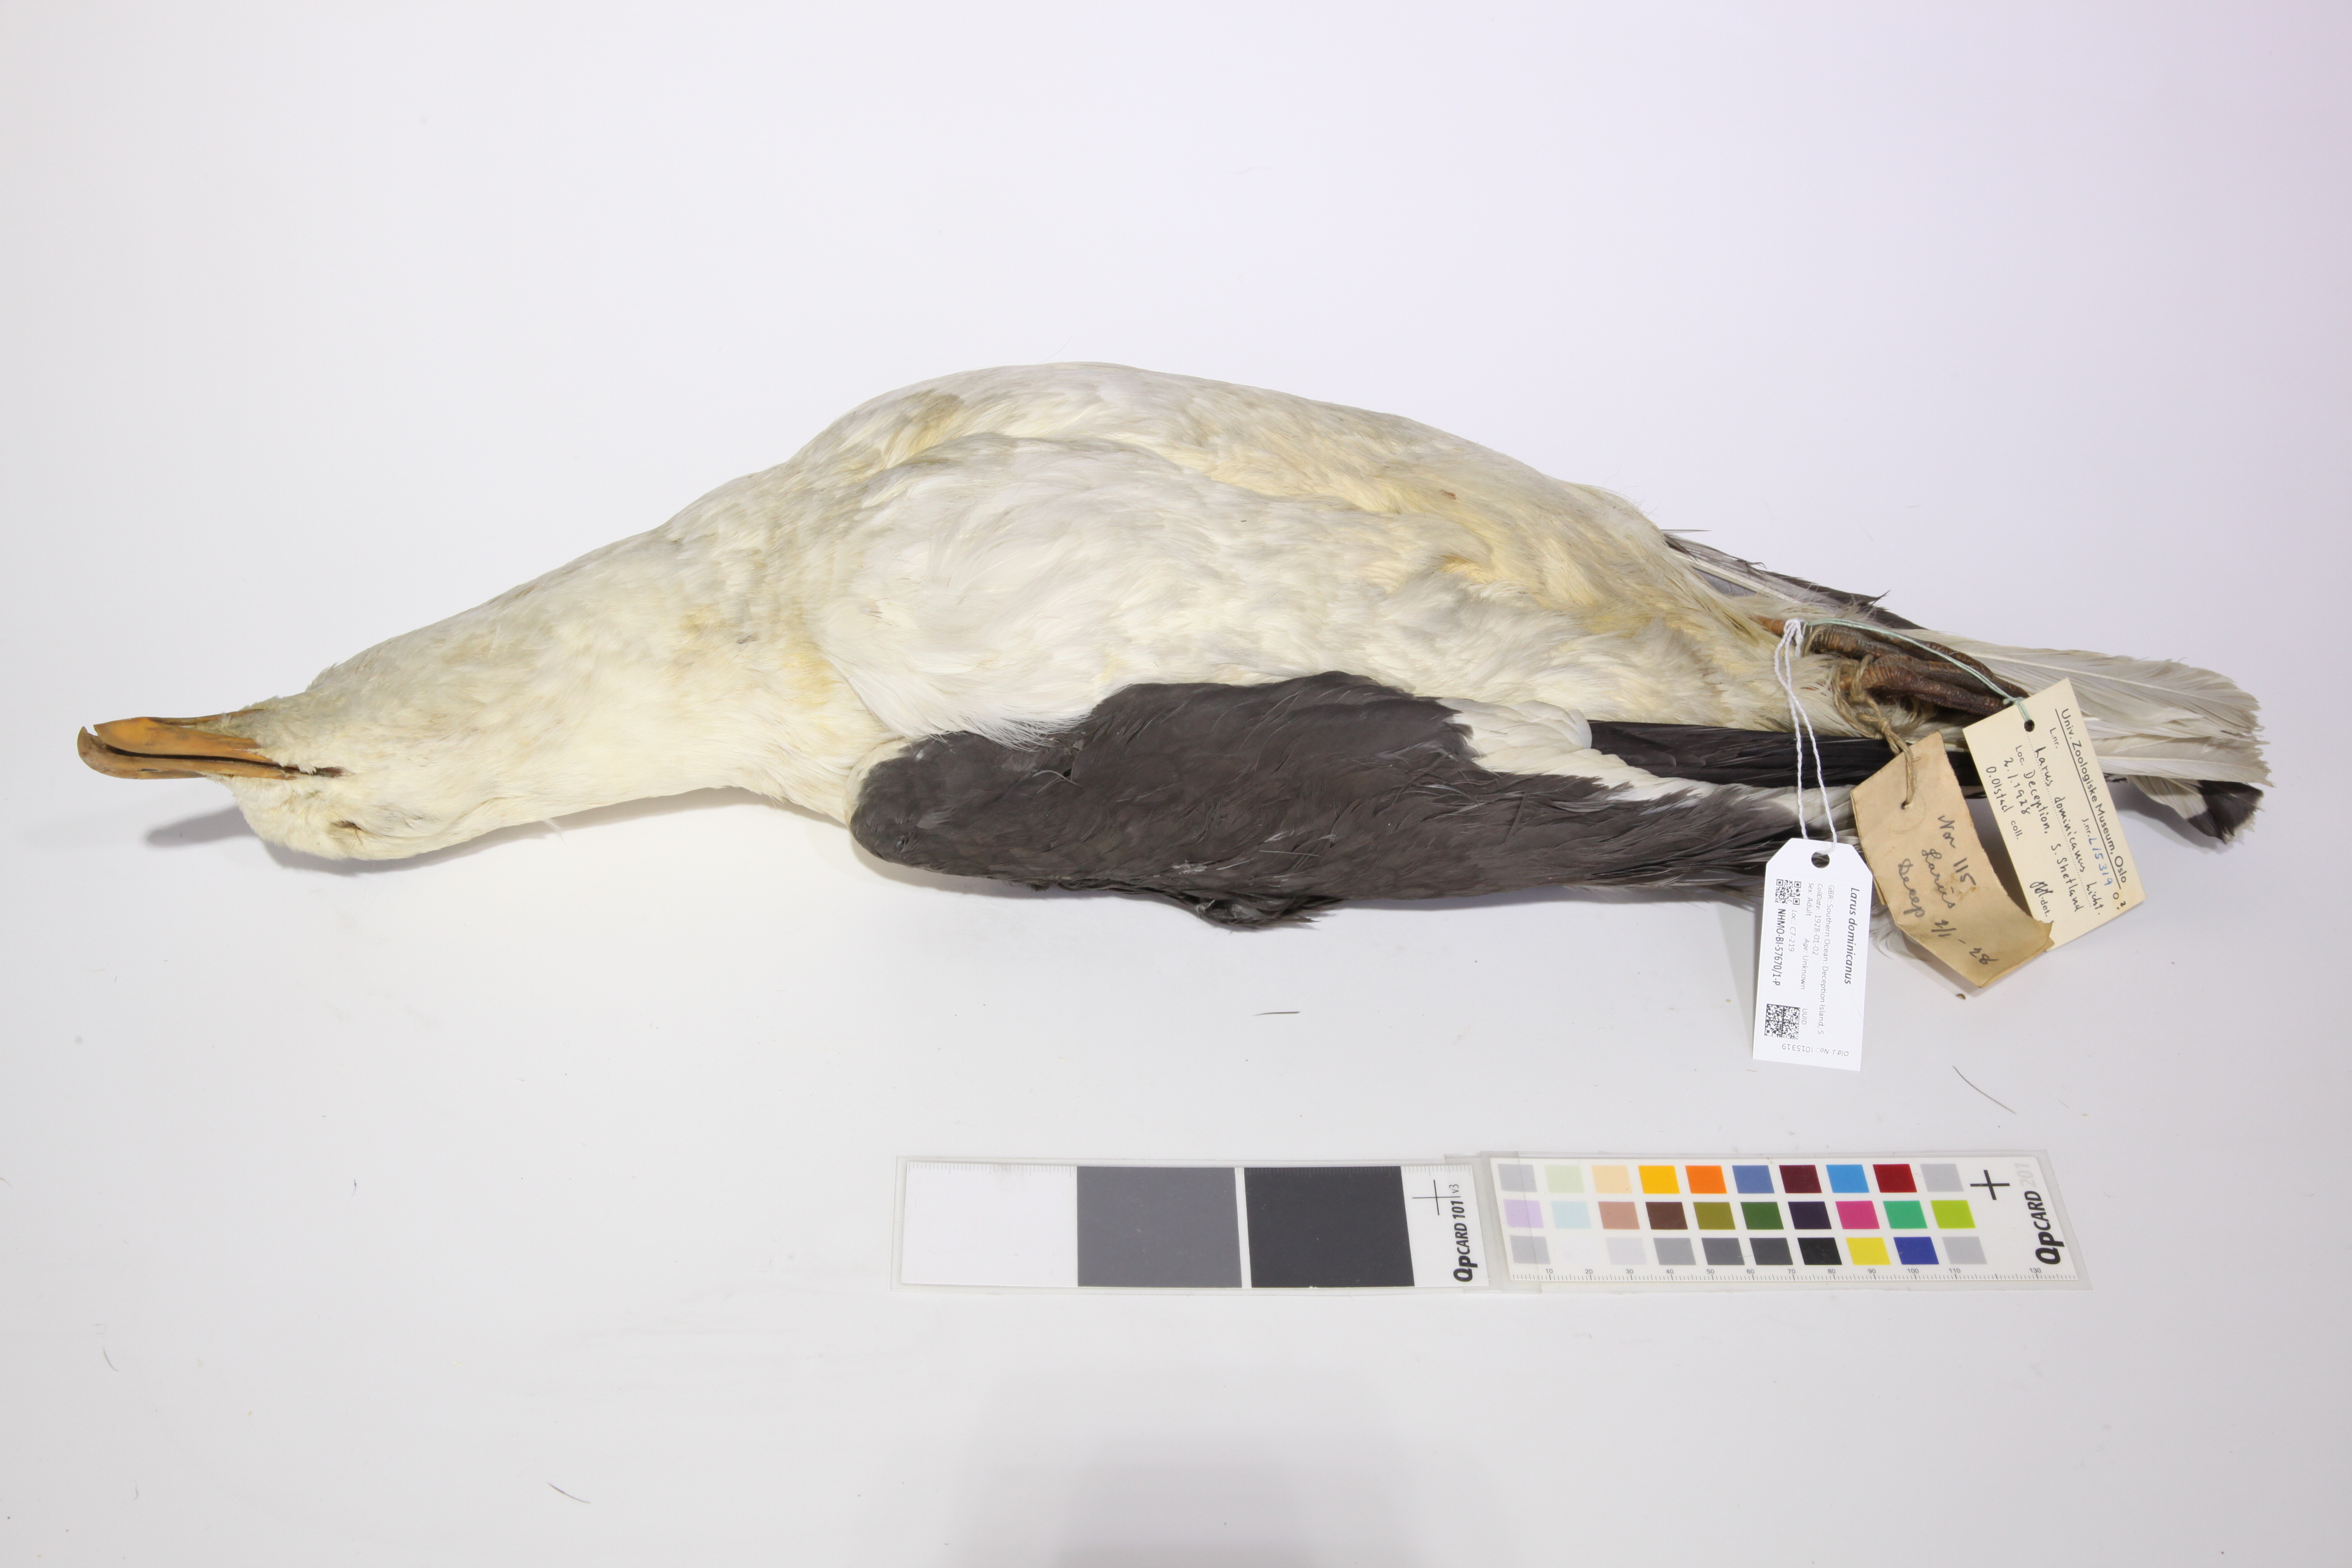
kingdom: Animalia
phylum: Chordata
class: Aves
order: Charadriiformes
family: Laridae
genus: Larus
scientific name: Larus dominicanus
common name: Kelp gull
